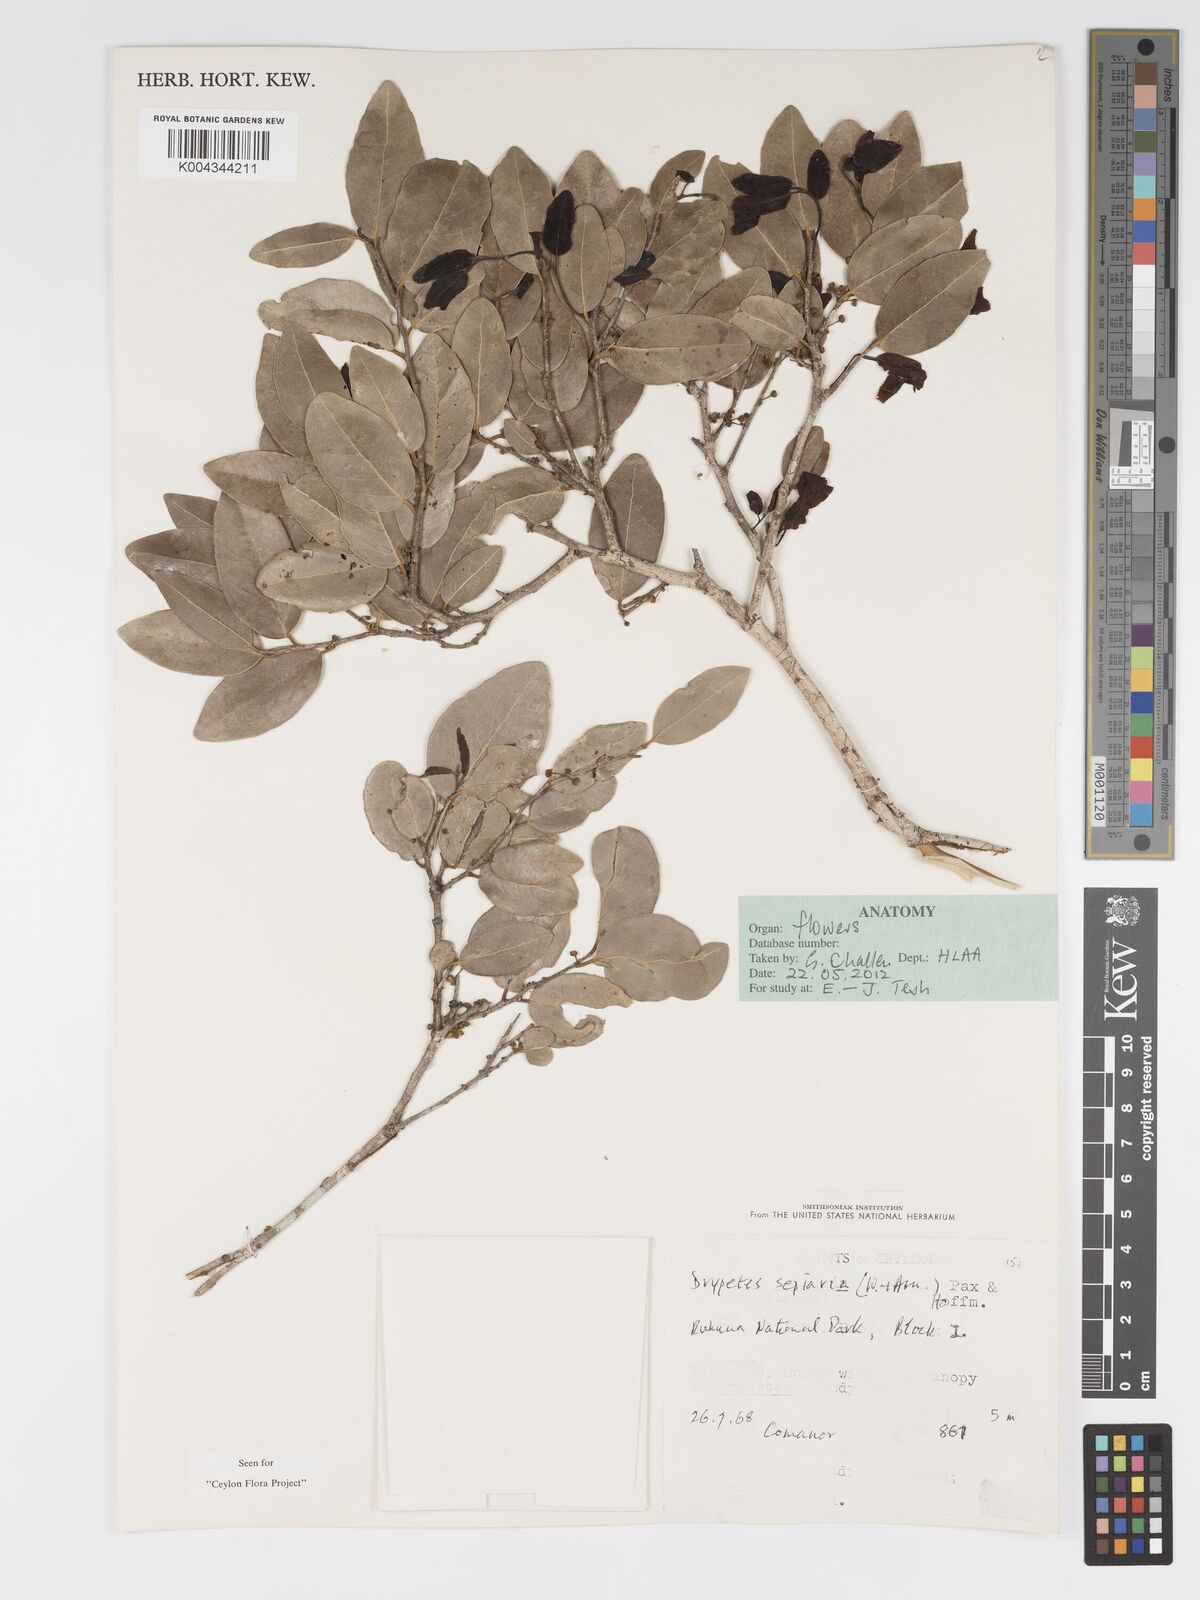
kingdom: Plantae
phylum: Tracheophyta
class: Magnoliopsida
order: Malpighiales
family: Putranjivaceae
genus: Drypetes
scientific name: Drypetes sepiaria
